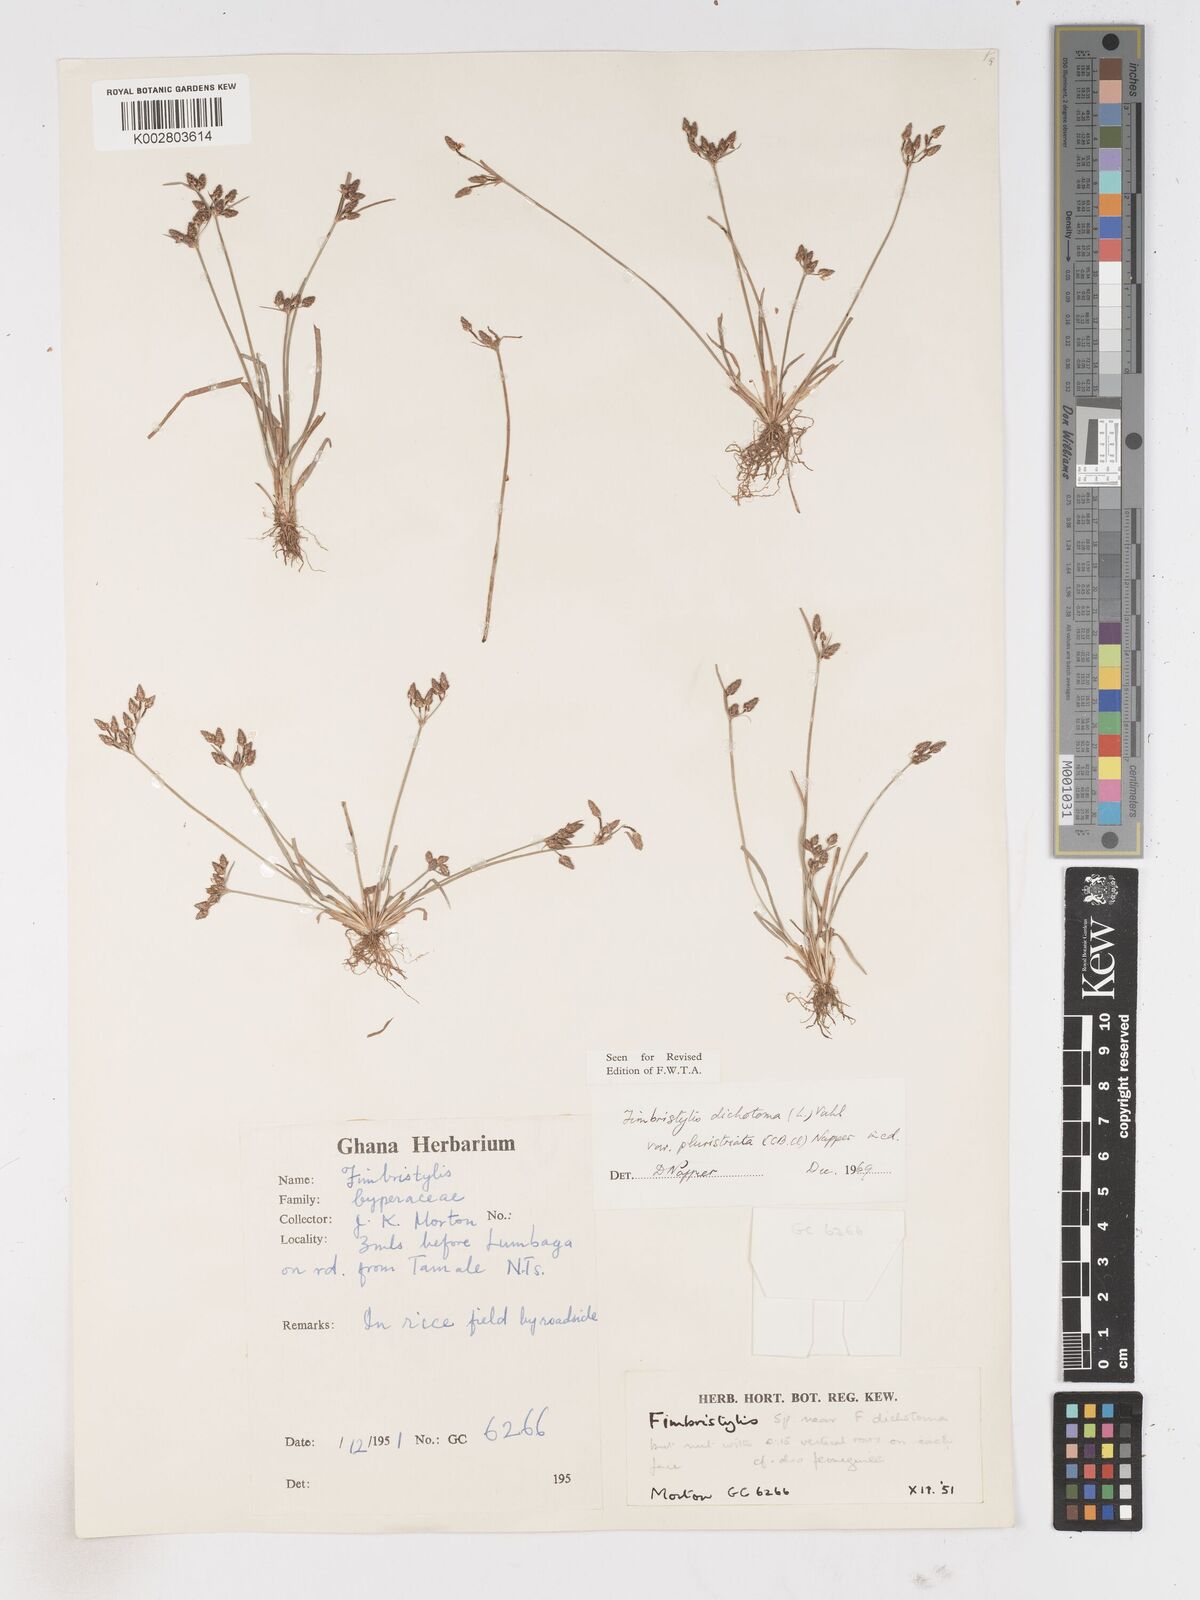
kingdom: Plantae
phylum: Tracheophyta
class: Liliopsida
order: Poales
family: Cyperaceae
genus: Fimbristylis
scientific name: Fimbristylis dichotoma
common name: Forked fimbry
